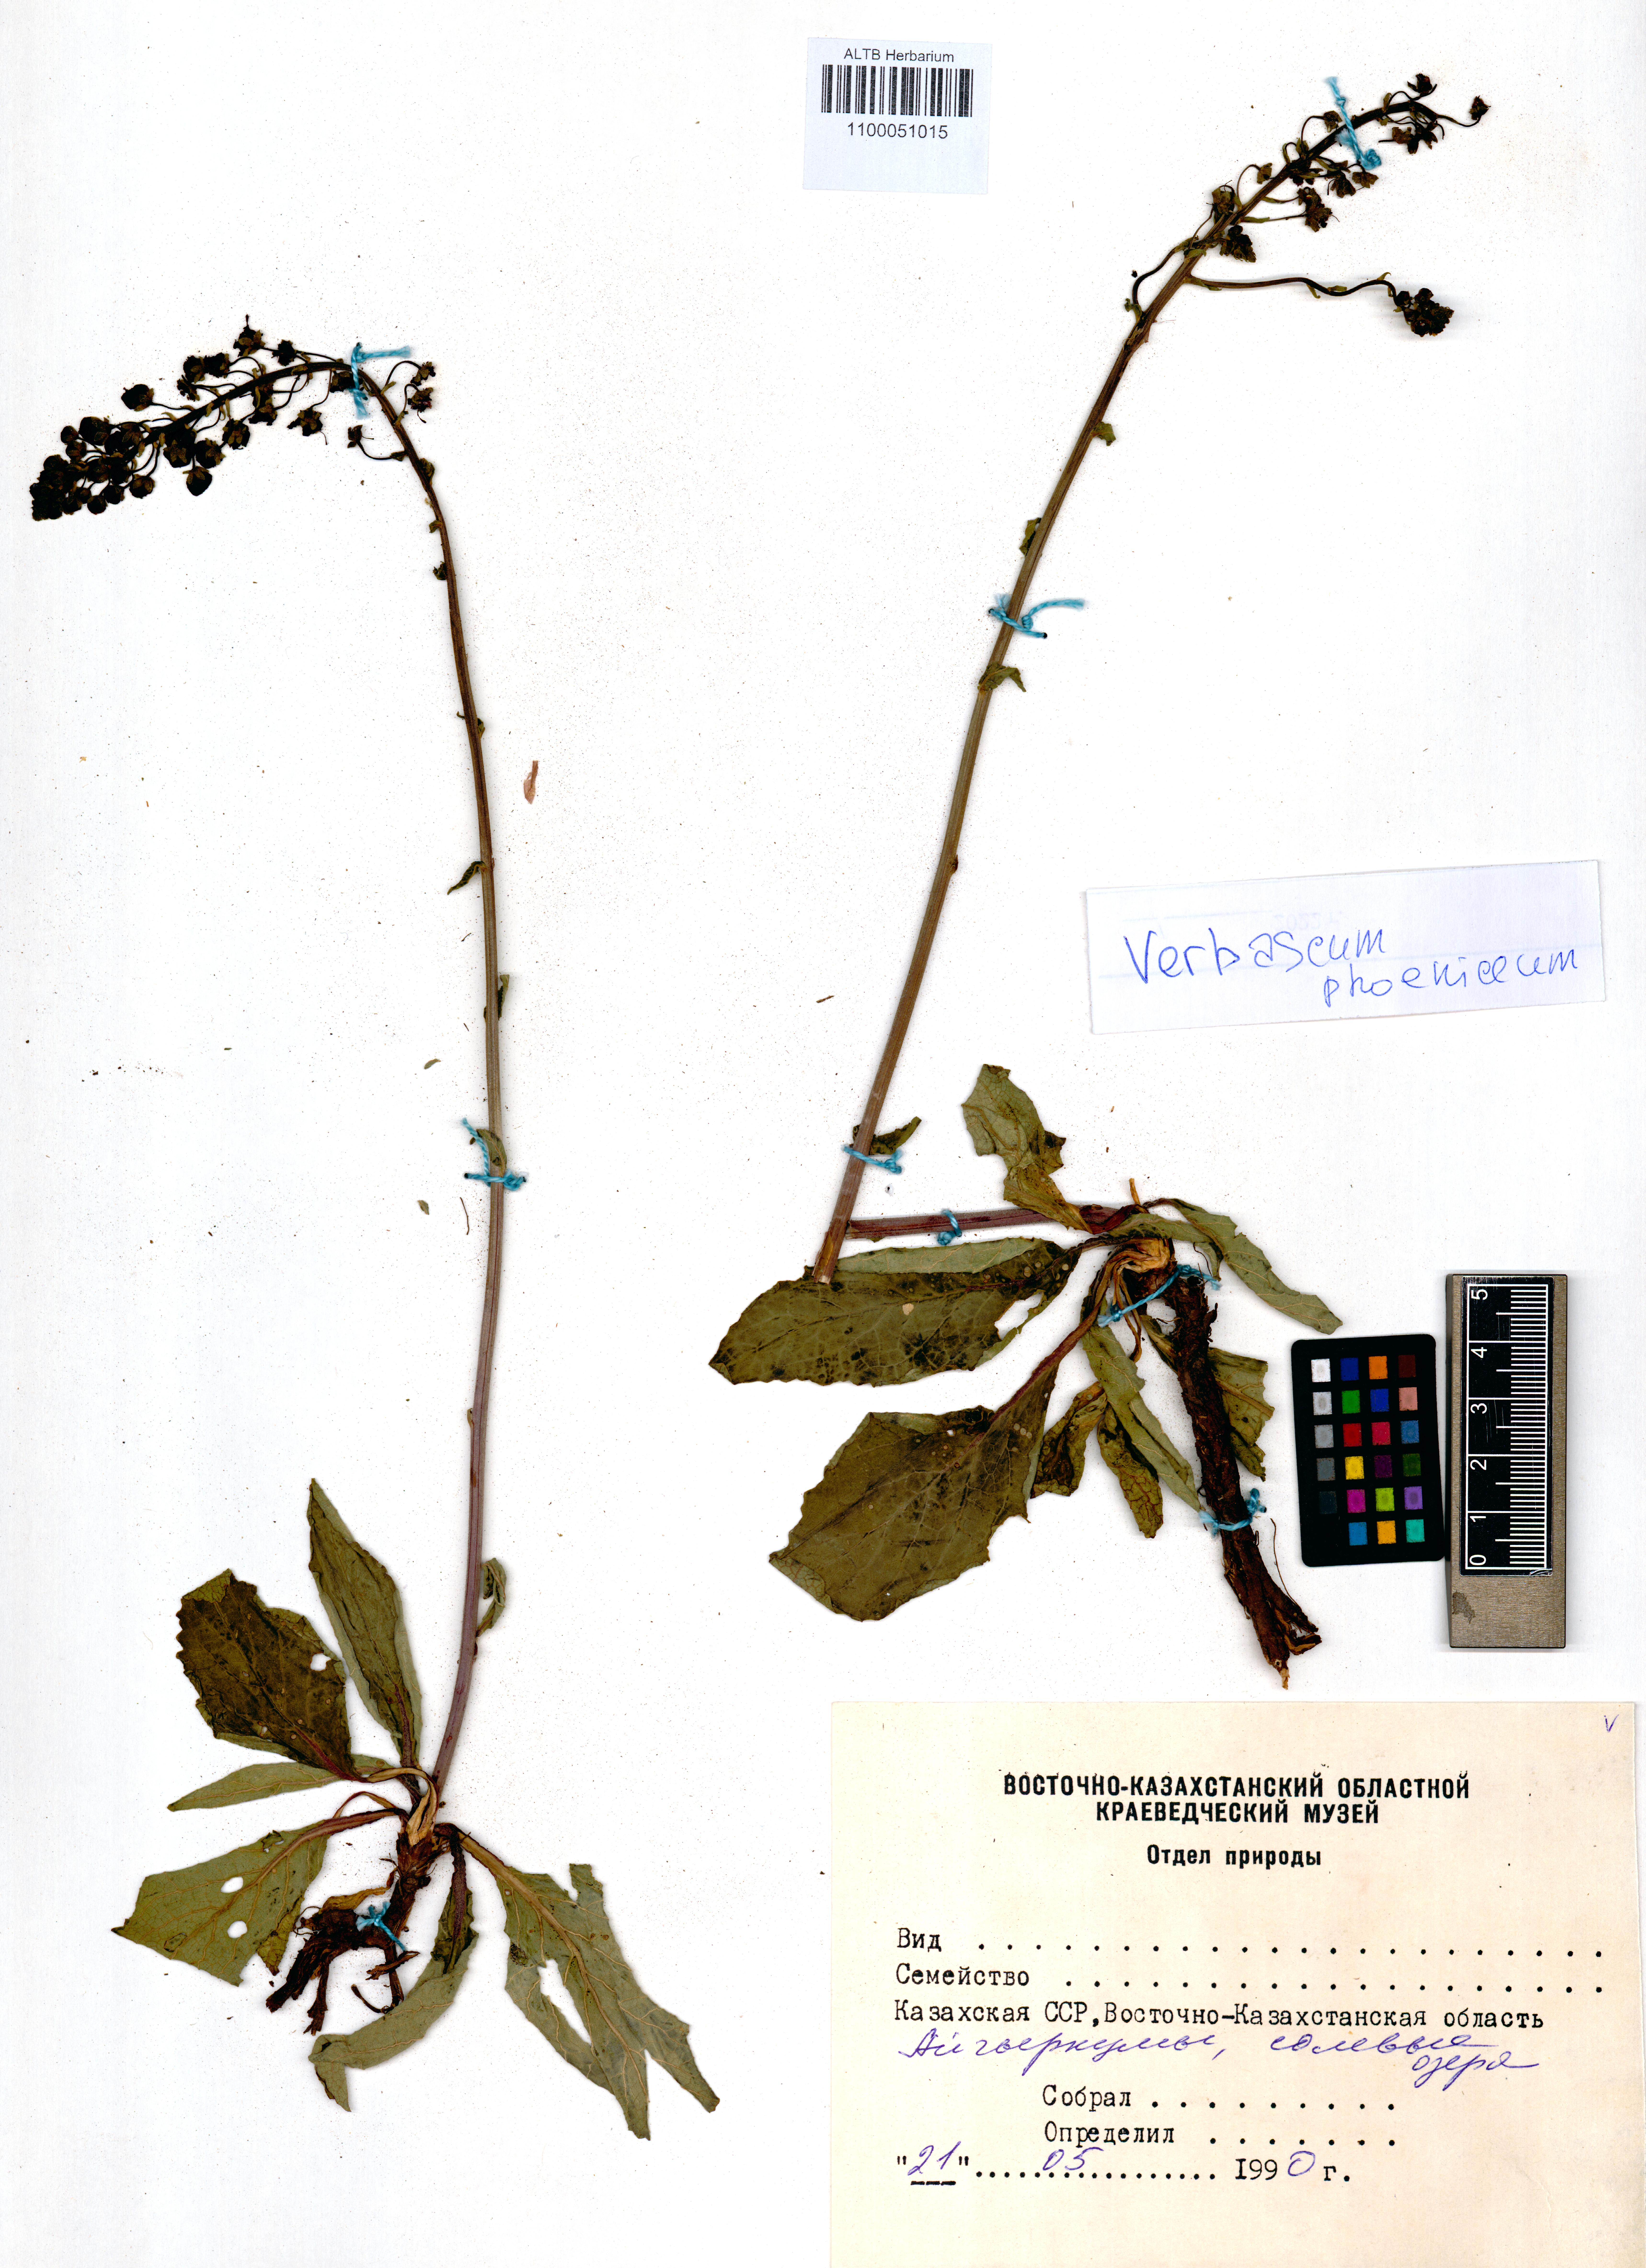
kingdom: Plantae
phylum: Tracheophyta
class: Magnoliopsida
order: Lamiales
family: Scrophulariaceae
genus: Verbascum
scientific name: Verbascum phoeniceum
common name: Purple mullein
